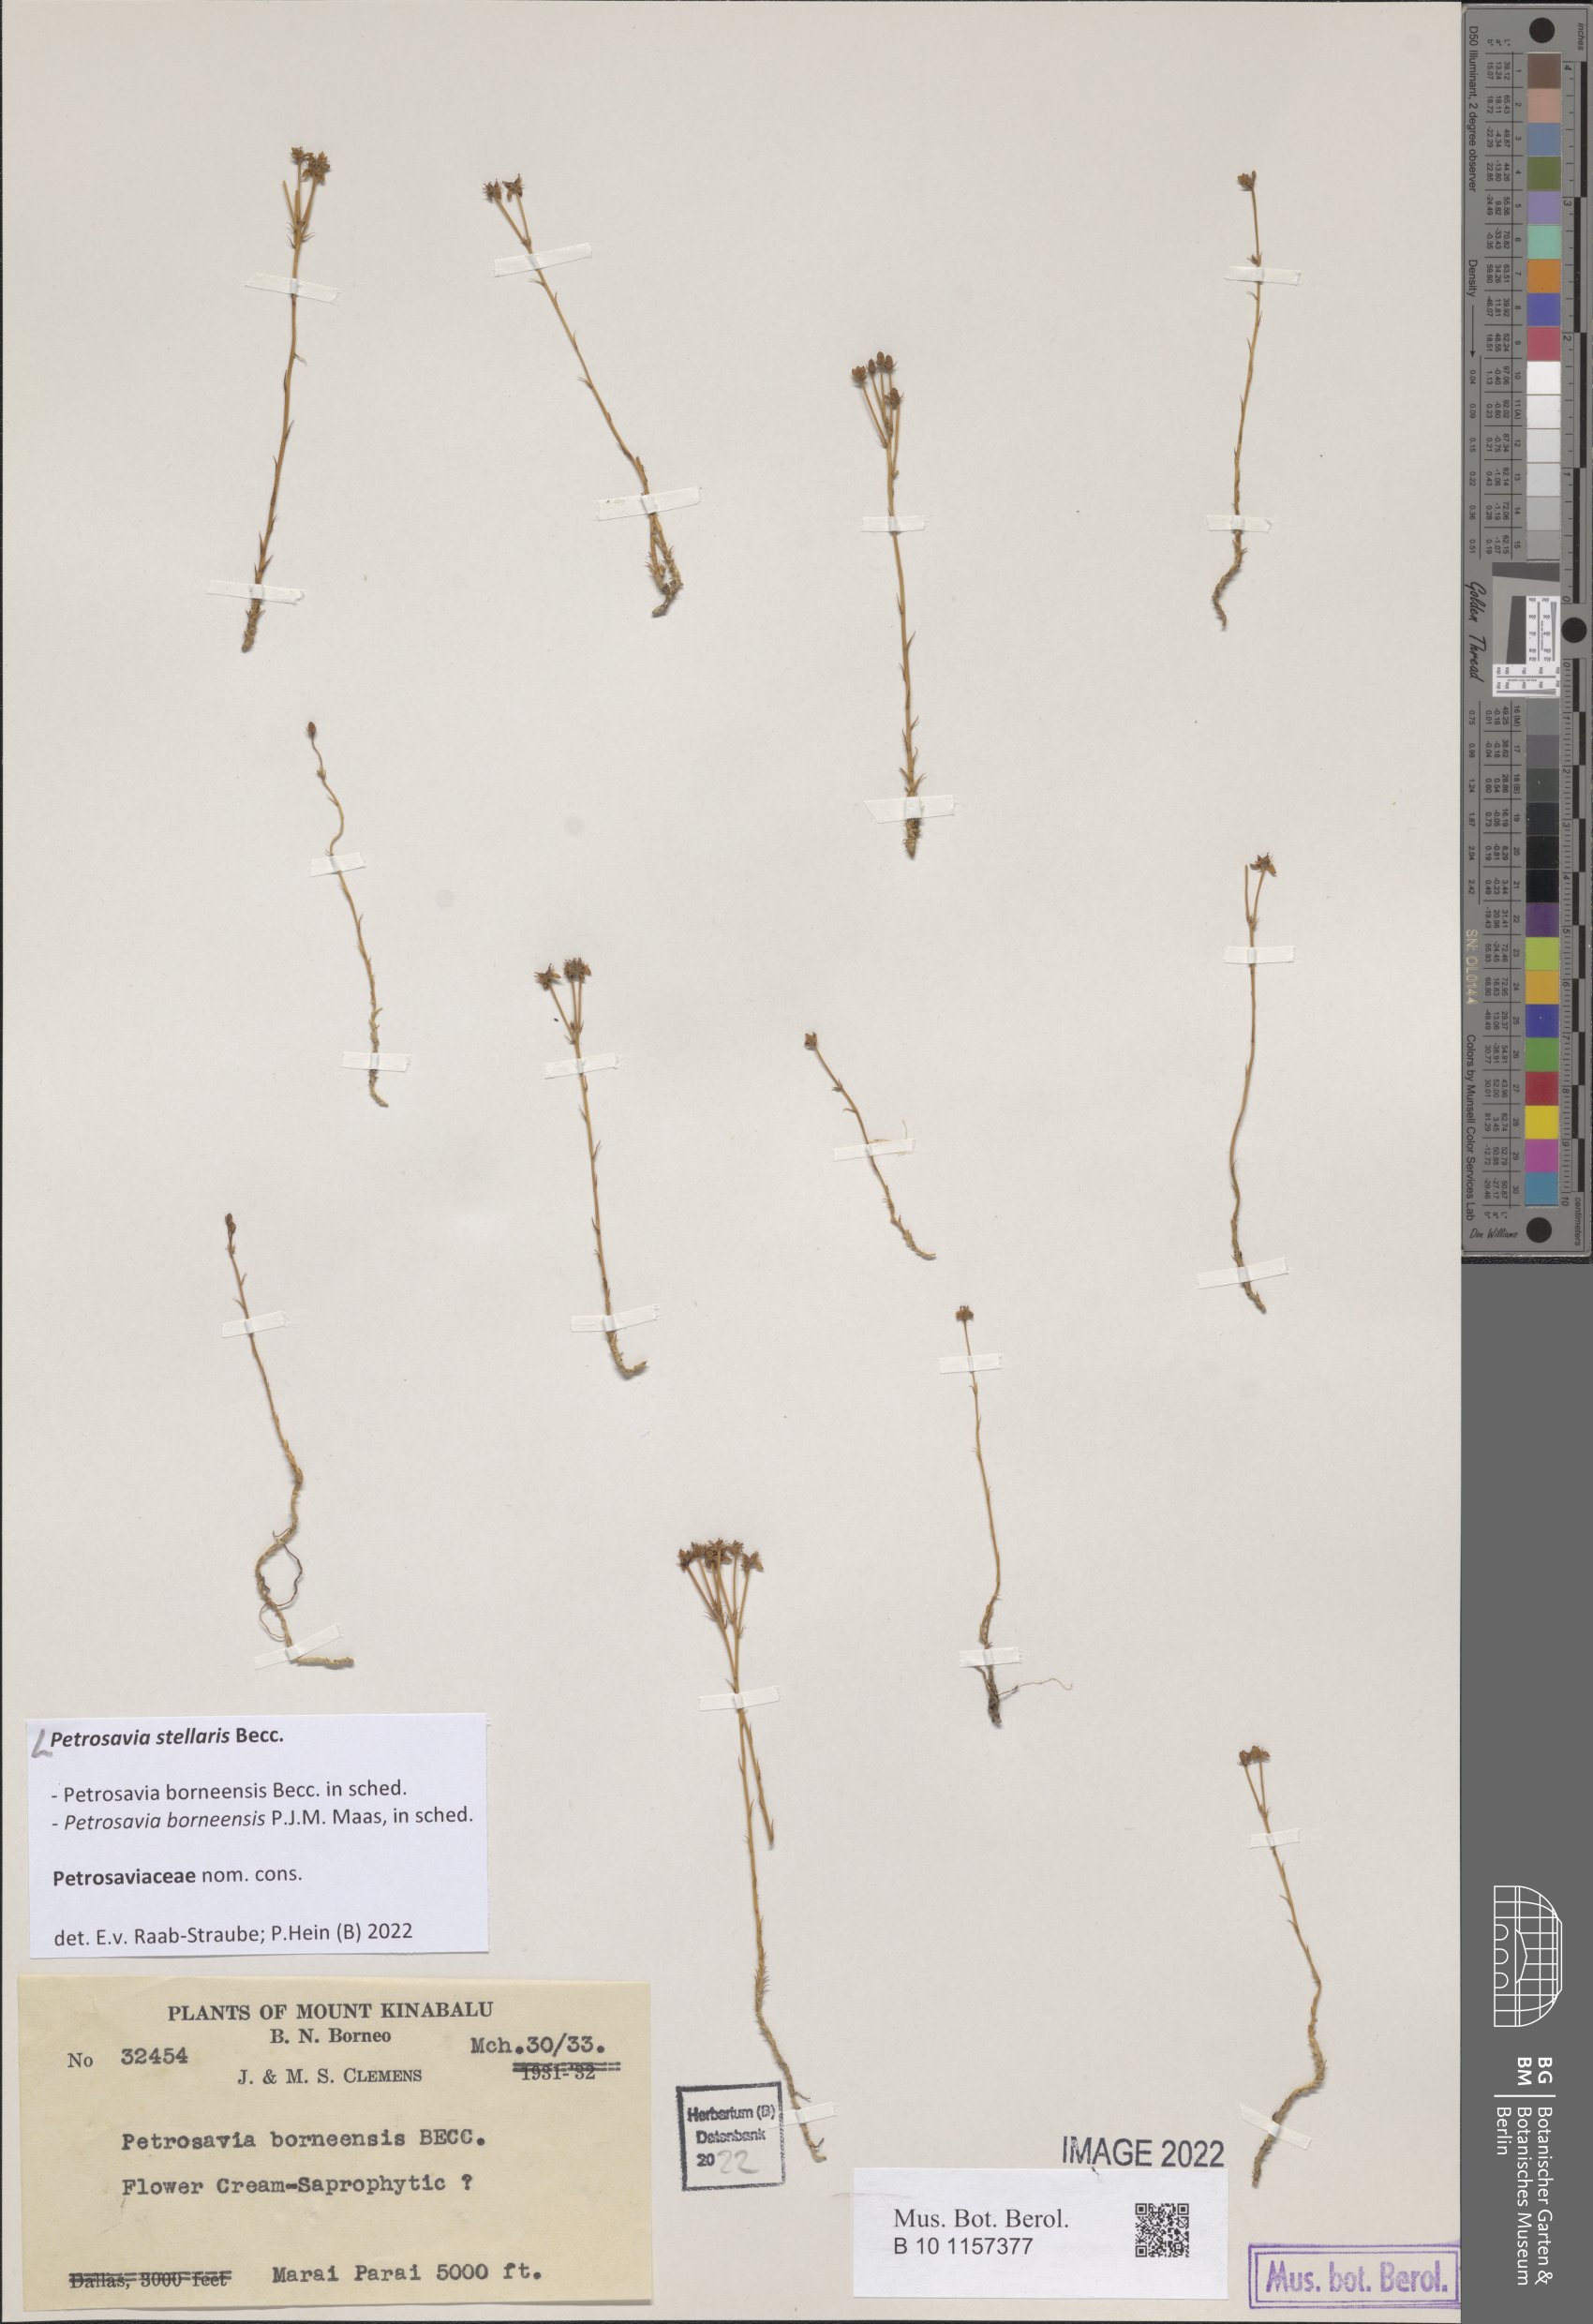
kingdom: Plantae
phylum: Tracheophyta
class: Liliopsida
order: Petrosaviales
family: Petrosaviaceae
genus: Petrosavia
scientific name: Petrosavia stellaris
